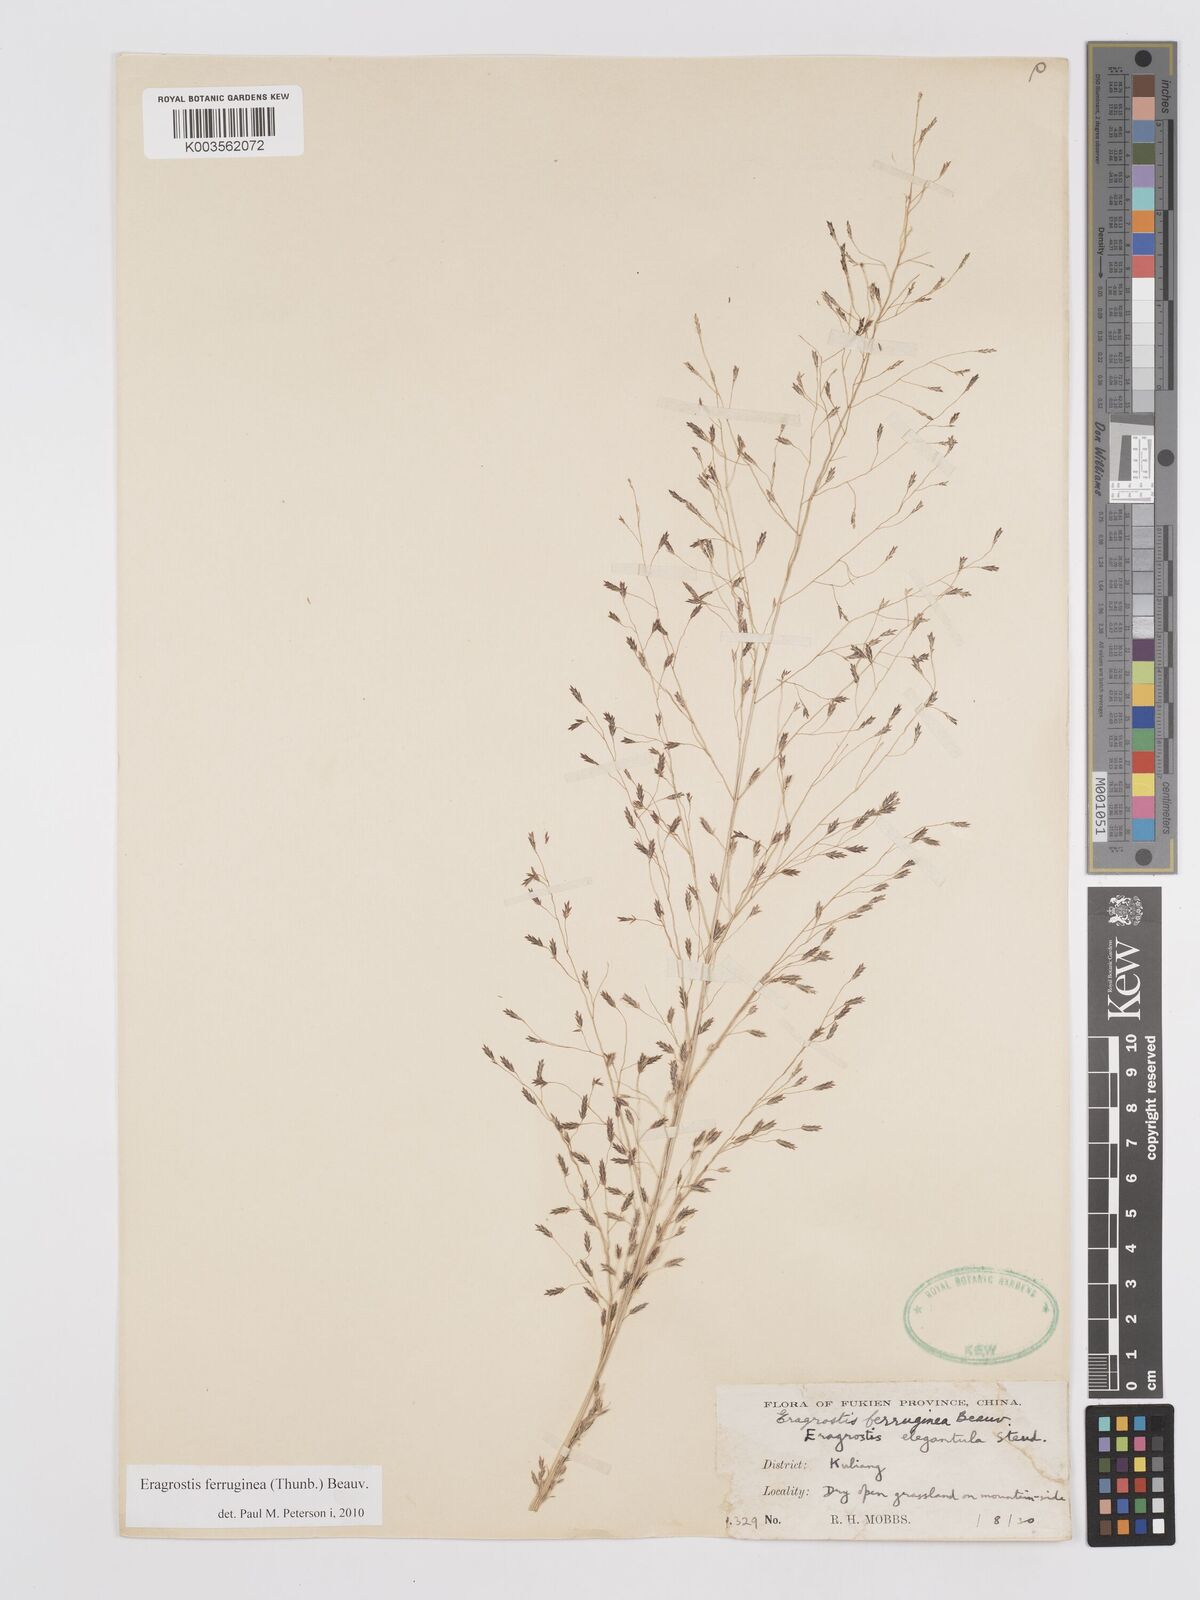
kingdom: Plantae
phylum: Tracheophyta
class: Liliopsida
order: Poales
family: Poaceae
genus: Eragrostis
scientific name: Eragrostis ferruginea
